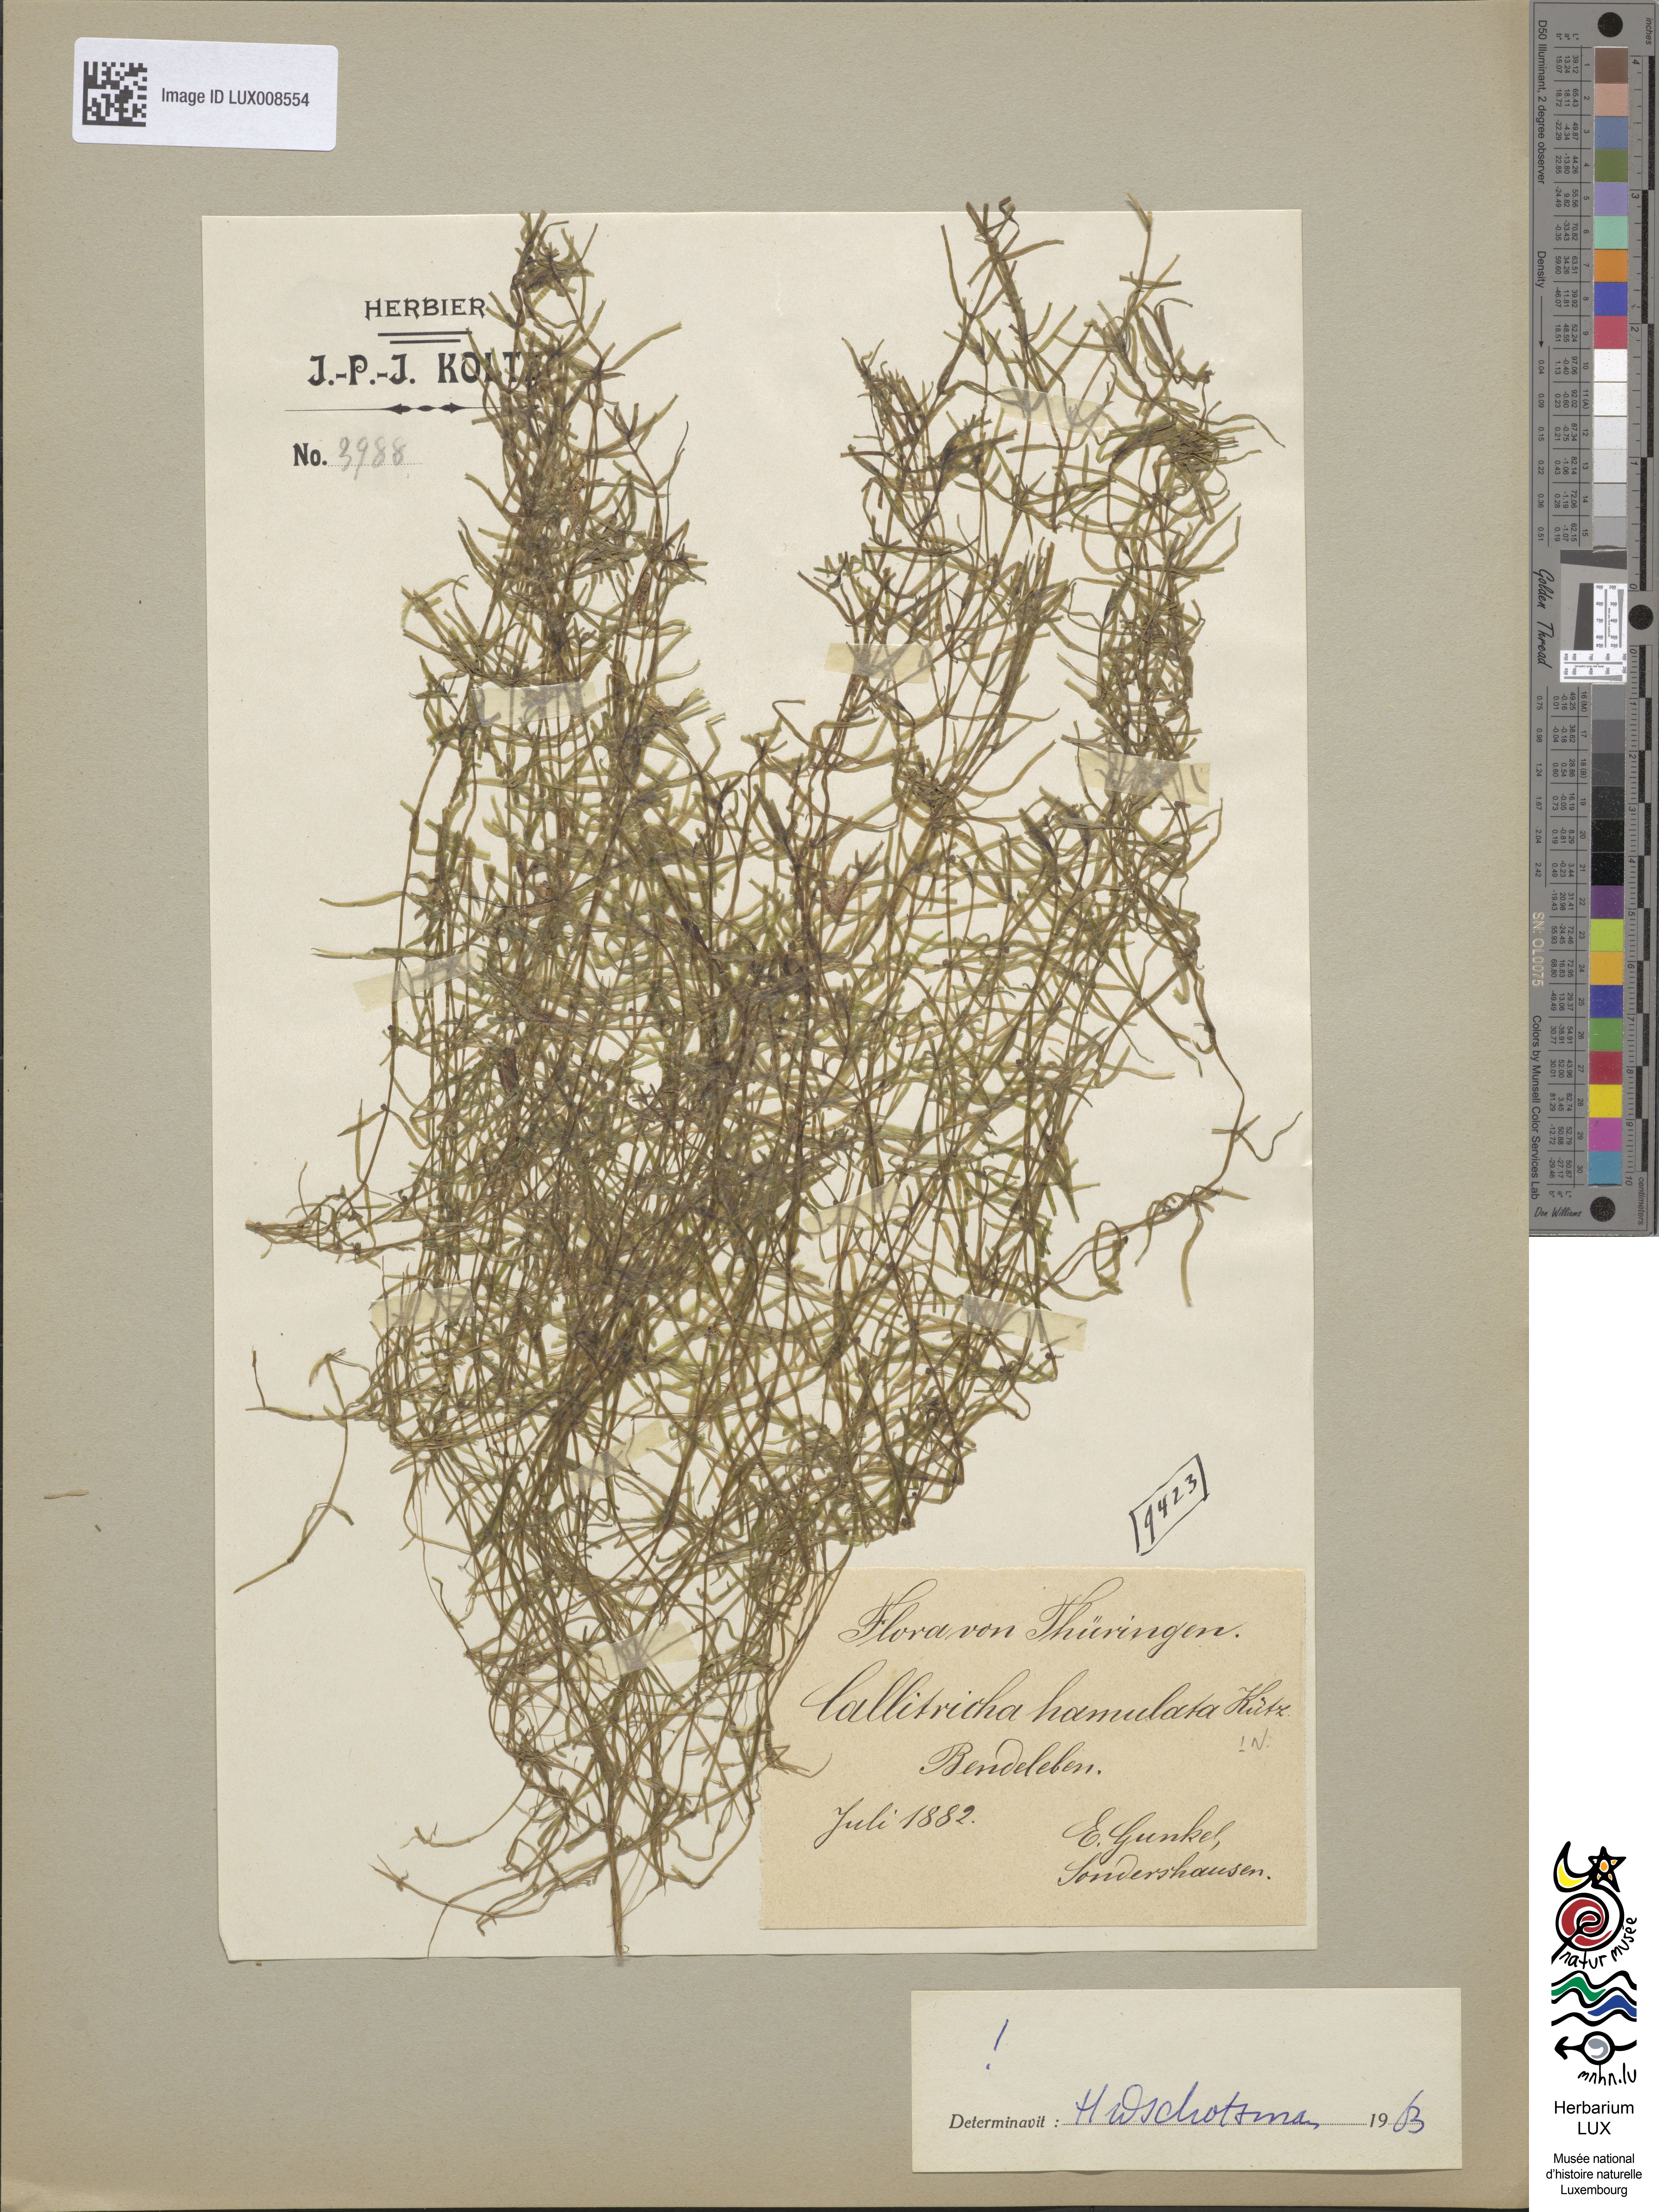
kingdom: Plantae
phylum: Tracheophyta
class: Magnoliopsida
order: Lamiales
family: Plantaginaceae
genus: Callitriche
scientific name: Callitriche hamulata
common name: Intermediate water-starwort
